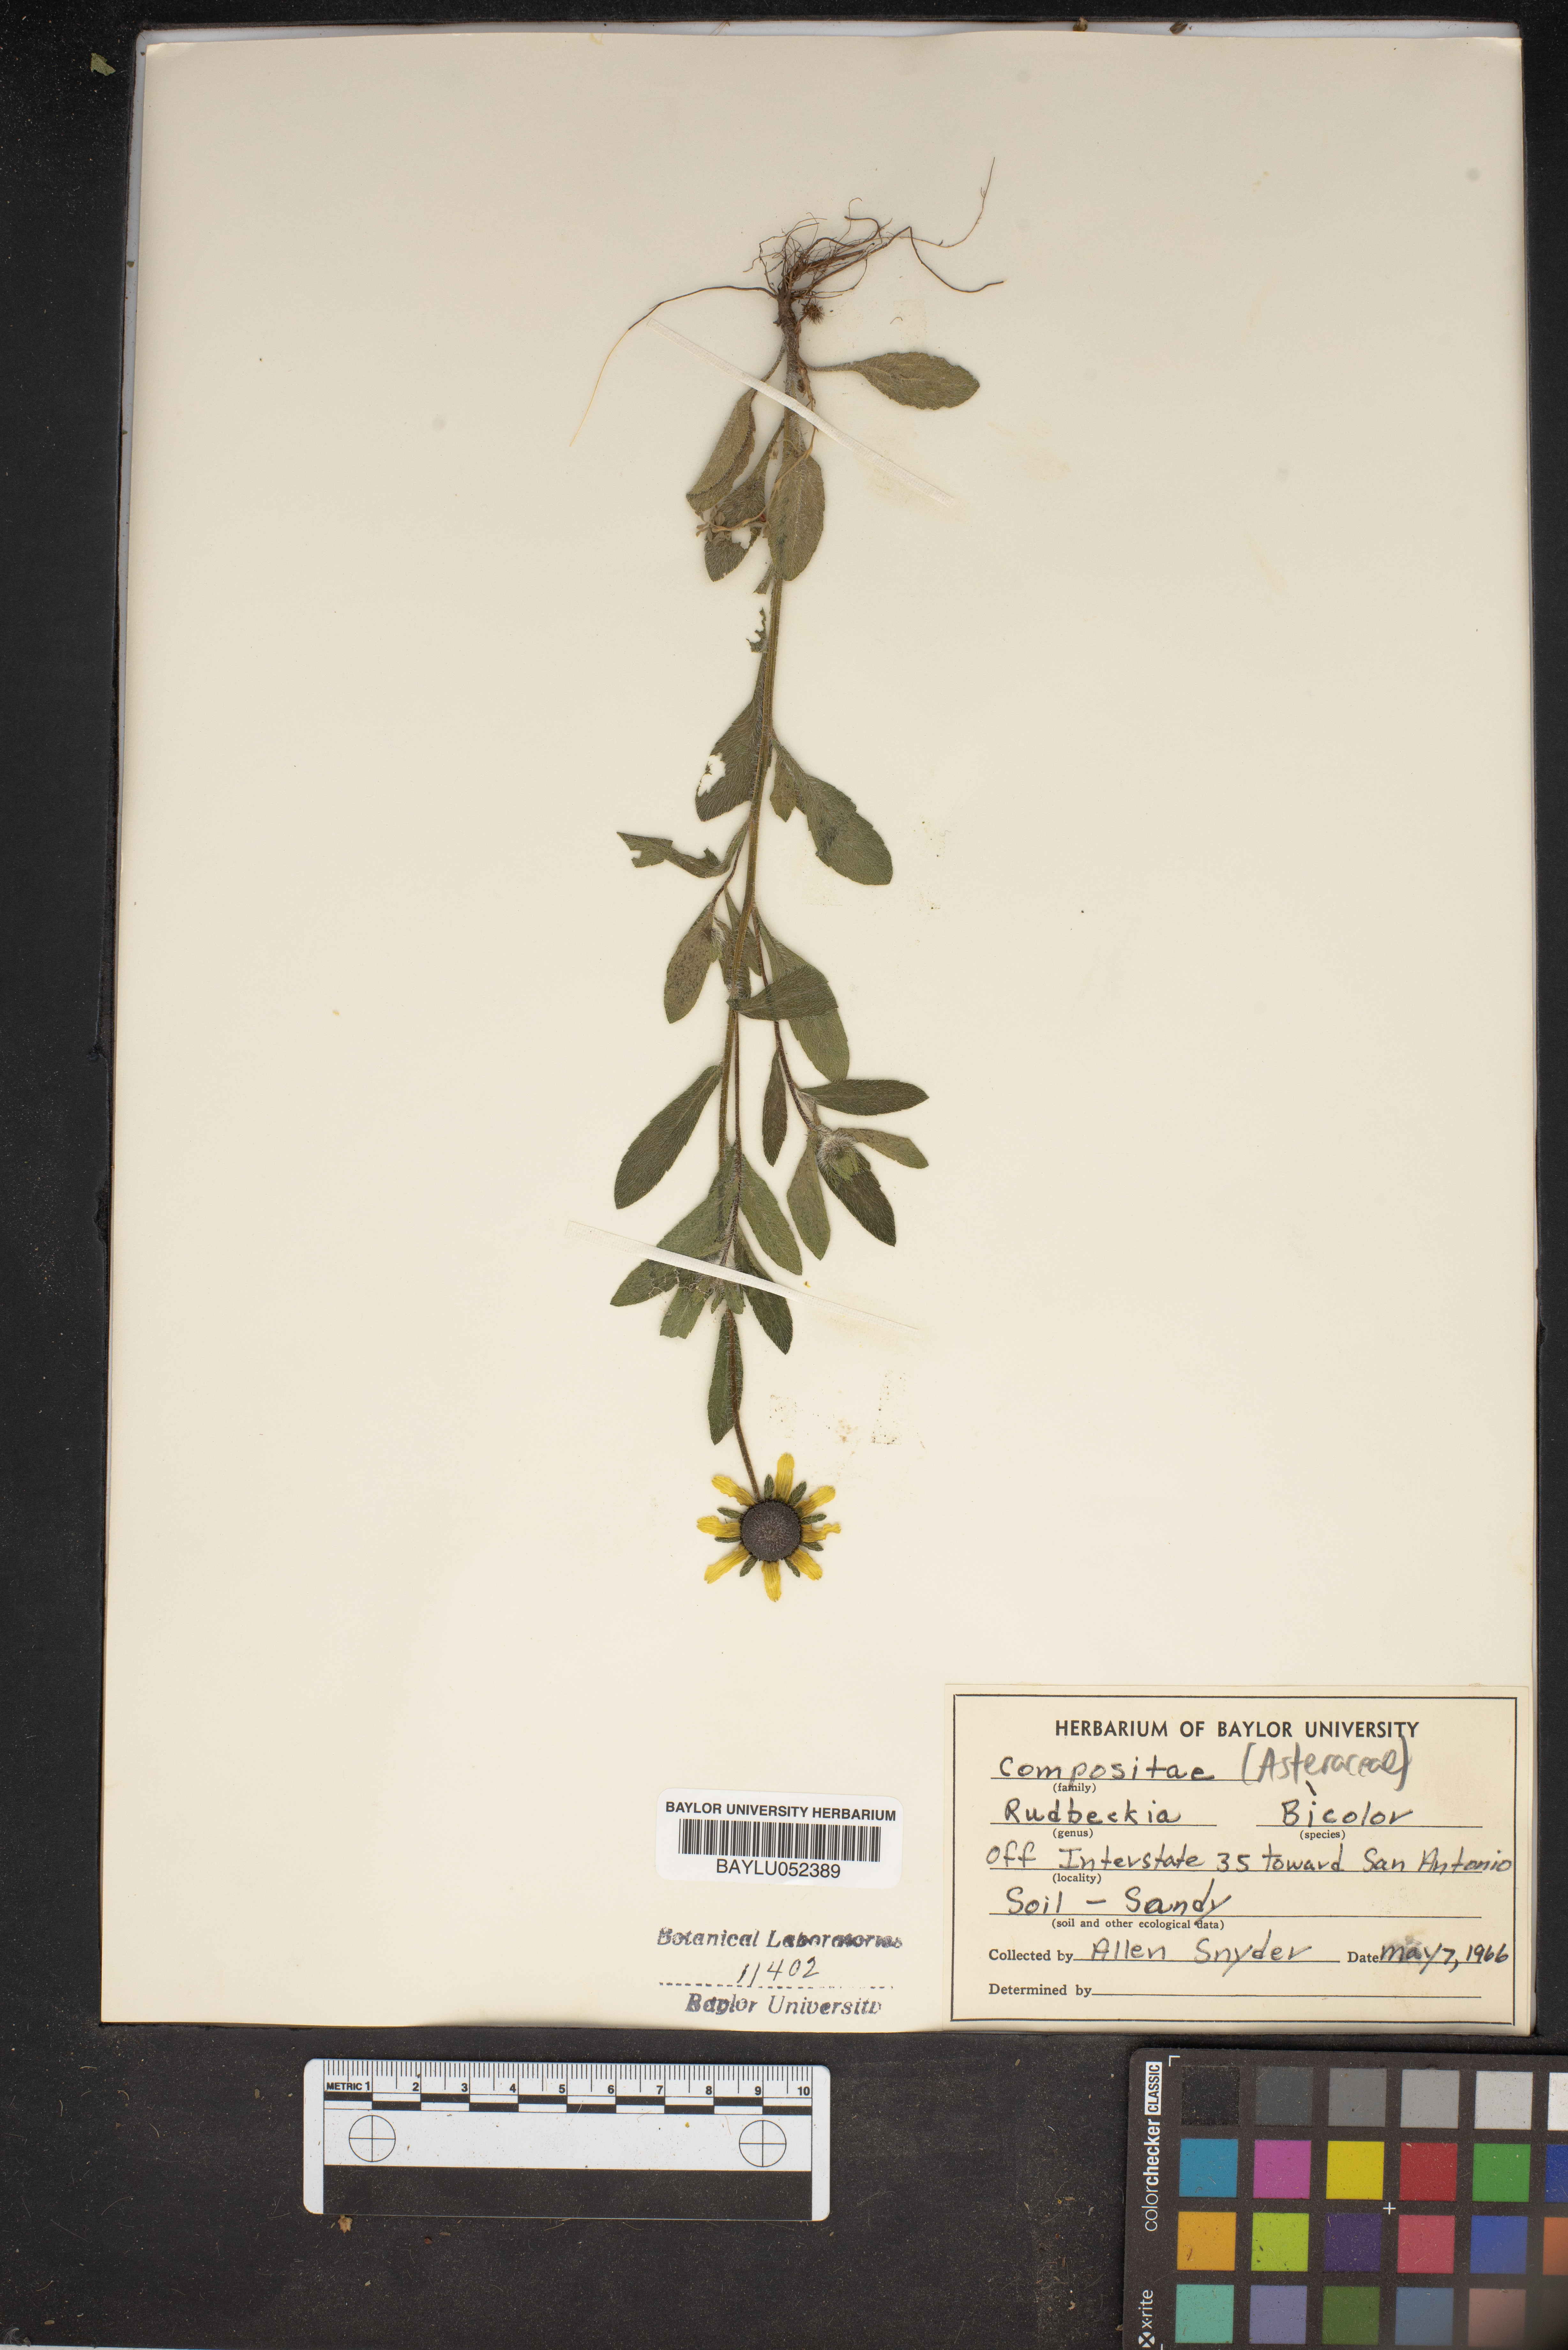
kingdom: Plantae
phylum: Tracheophyta
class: Magnoliopsida
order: Asterales
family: Asteraceae
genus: Rudbeckia
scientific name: Rudbeckia hirta
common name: Black-eyed-susan
